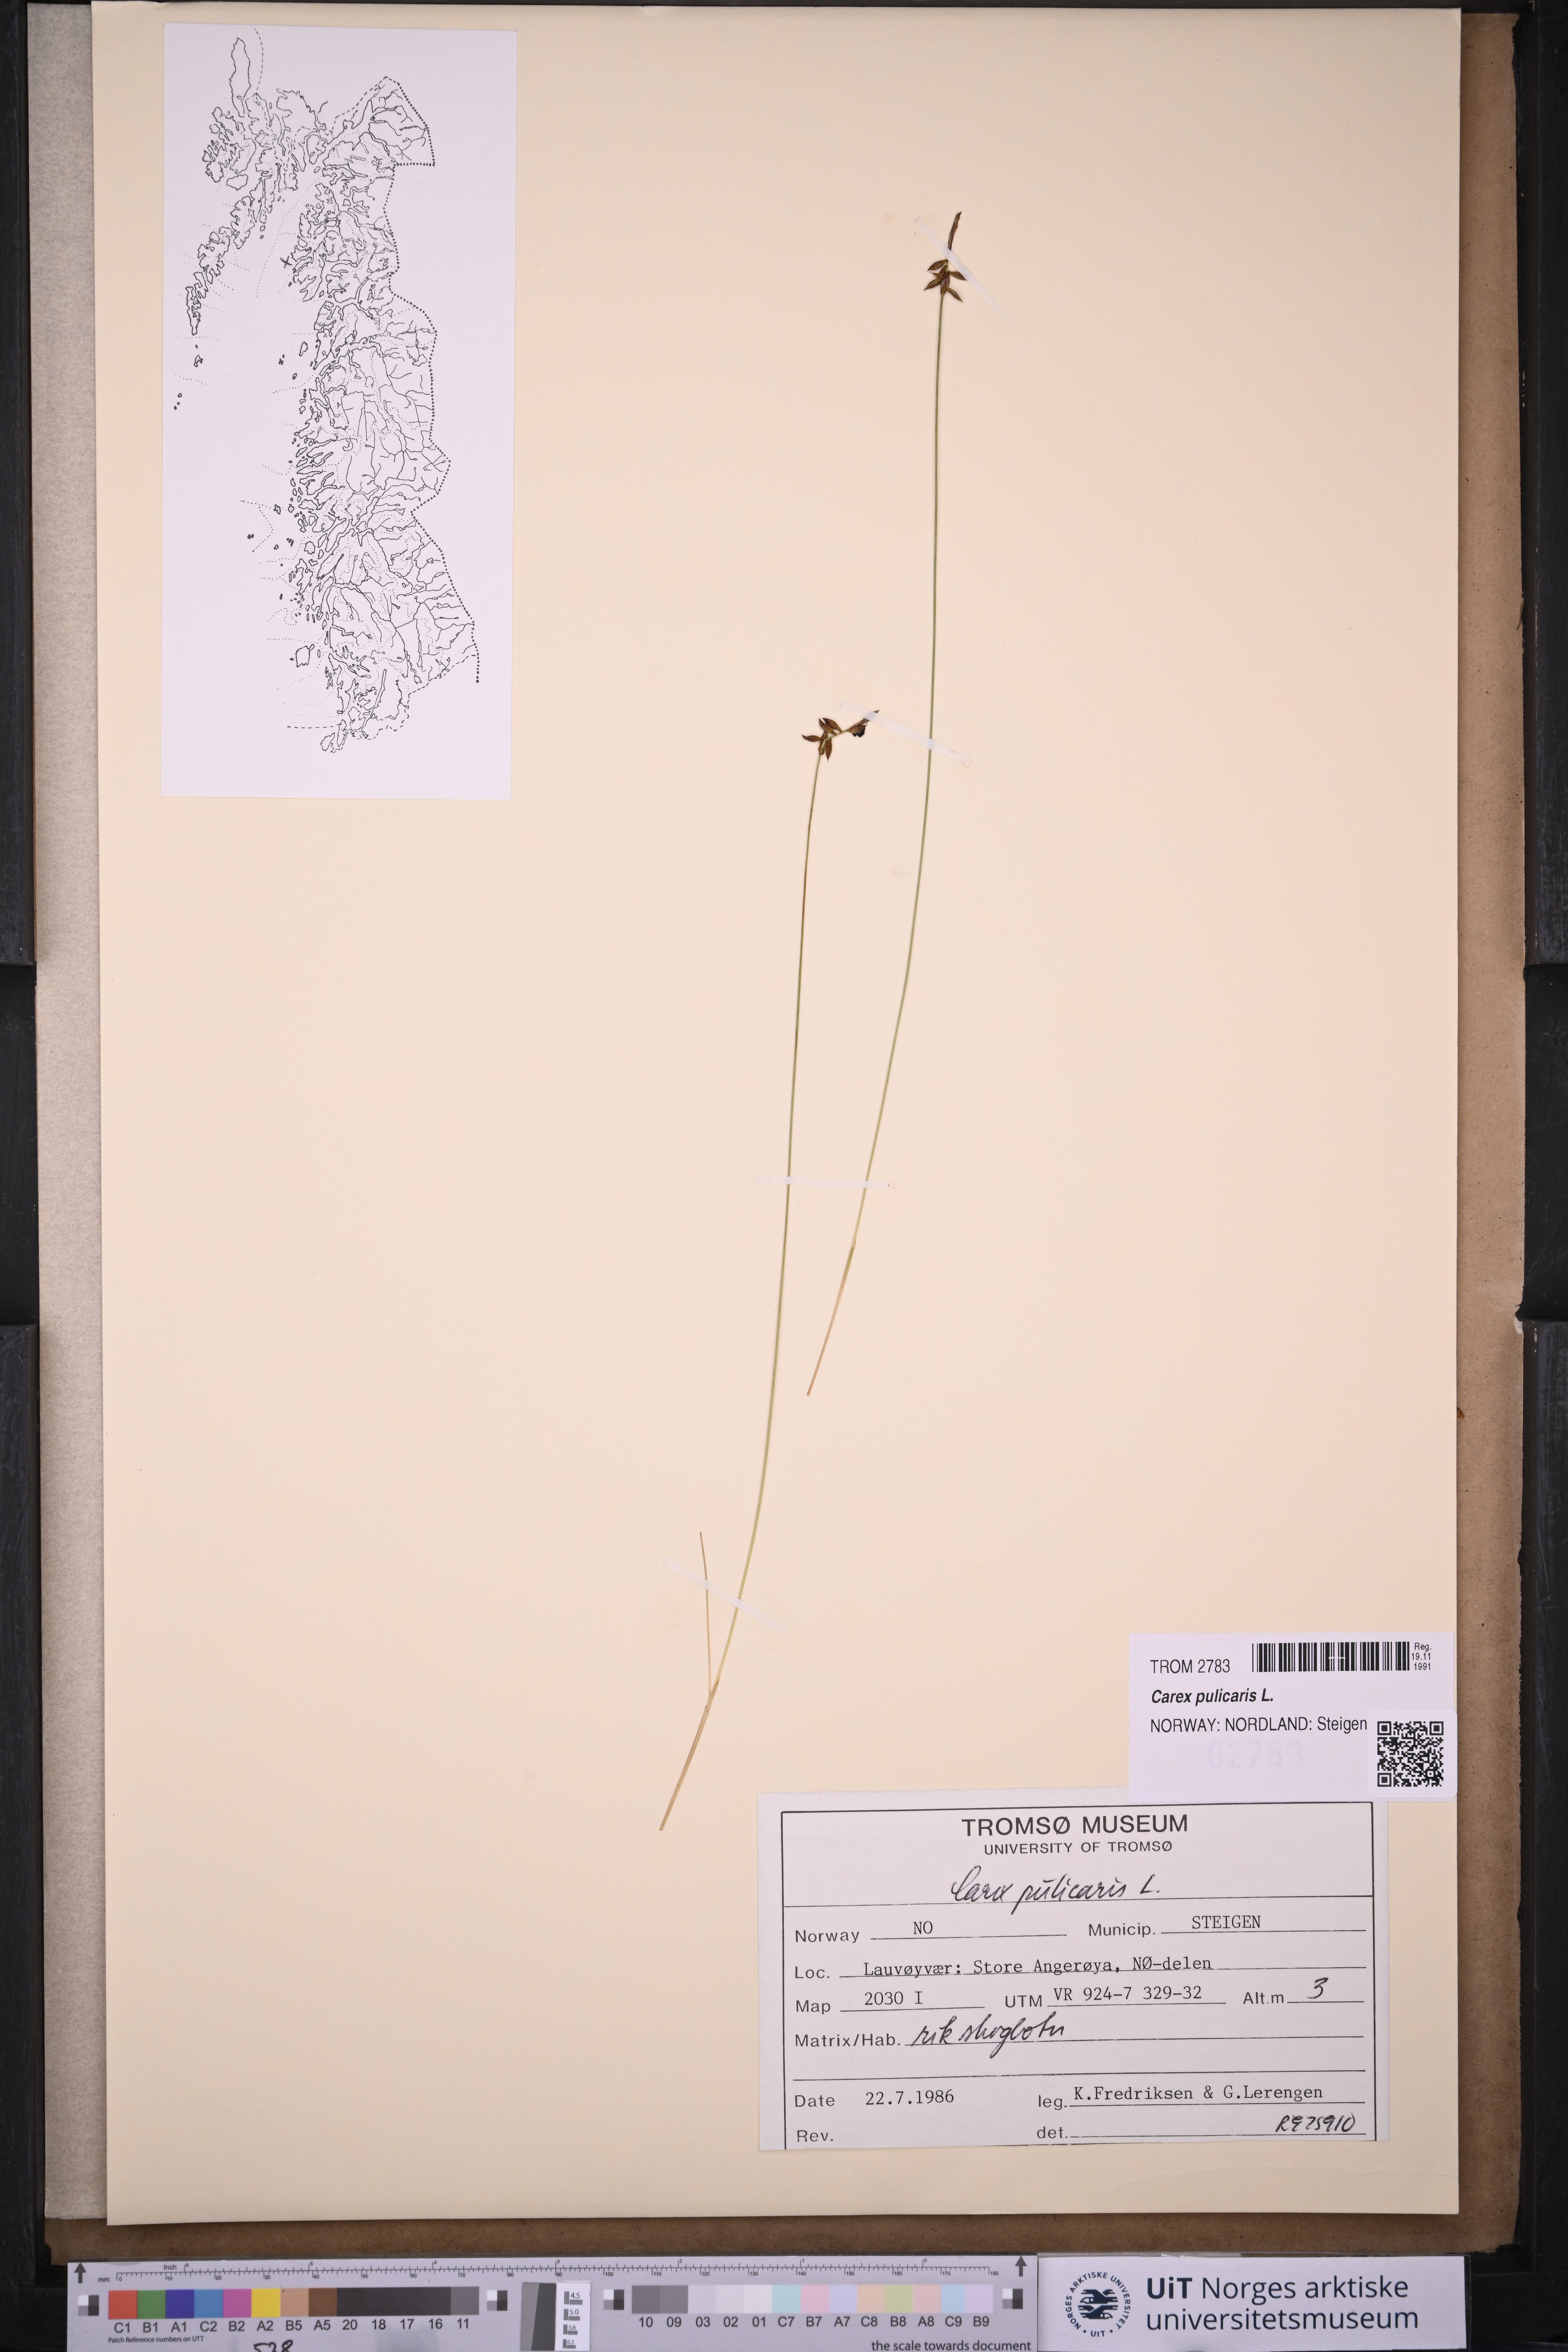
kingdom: Plantae
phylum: Tracheophyta
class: Liliopsida
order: Poales
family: Cyperaceae
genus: Carex
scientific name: Carex pulicaris
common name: Flea sedge
